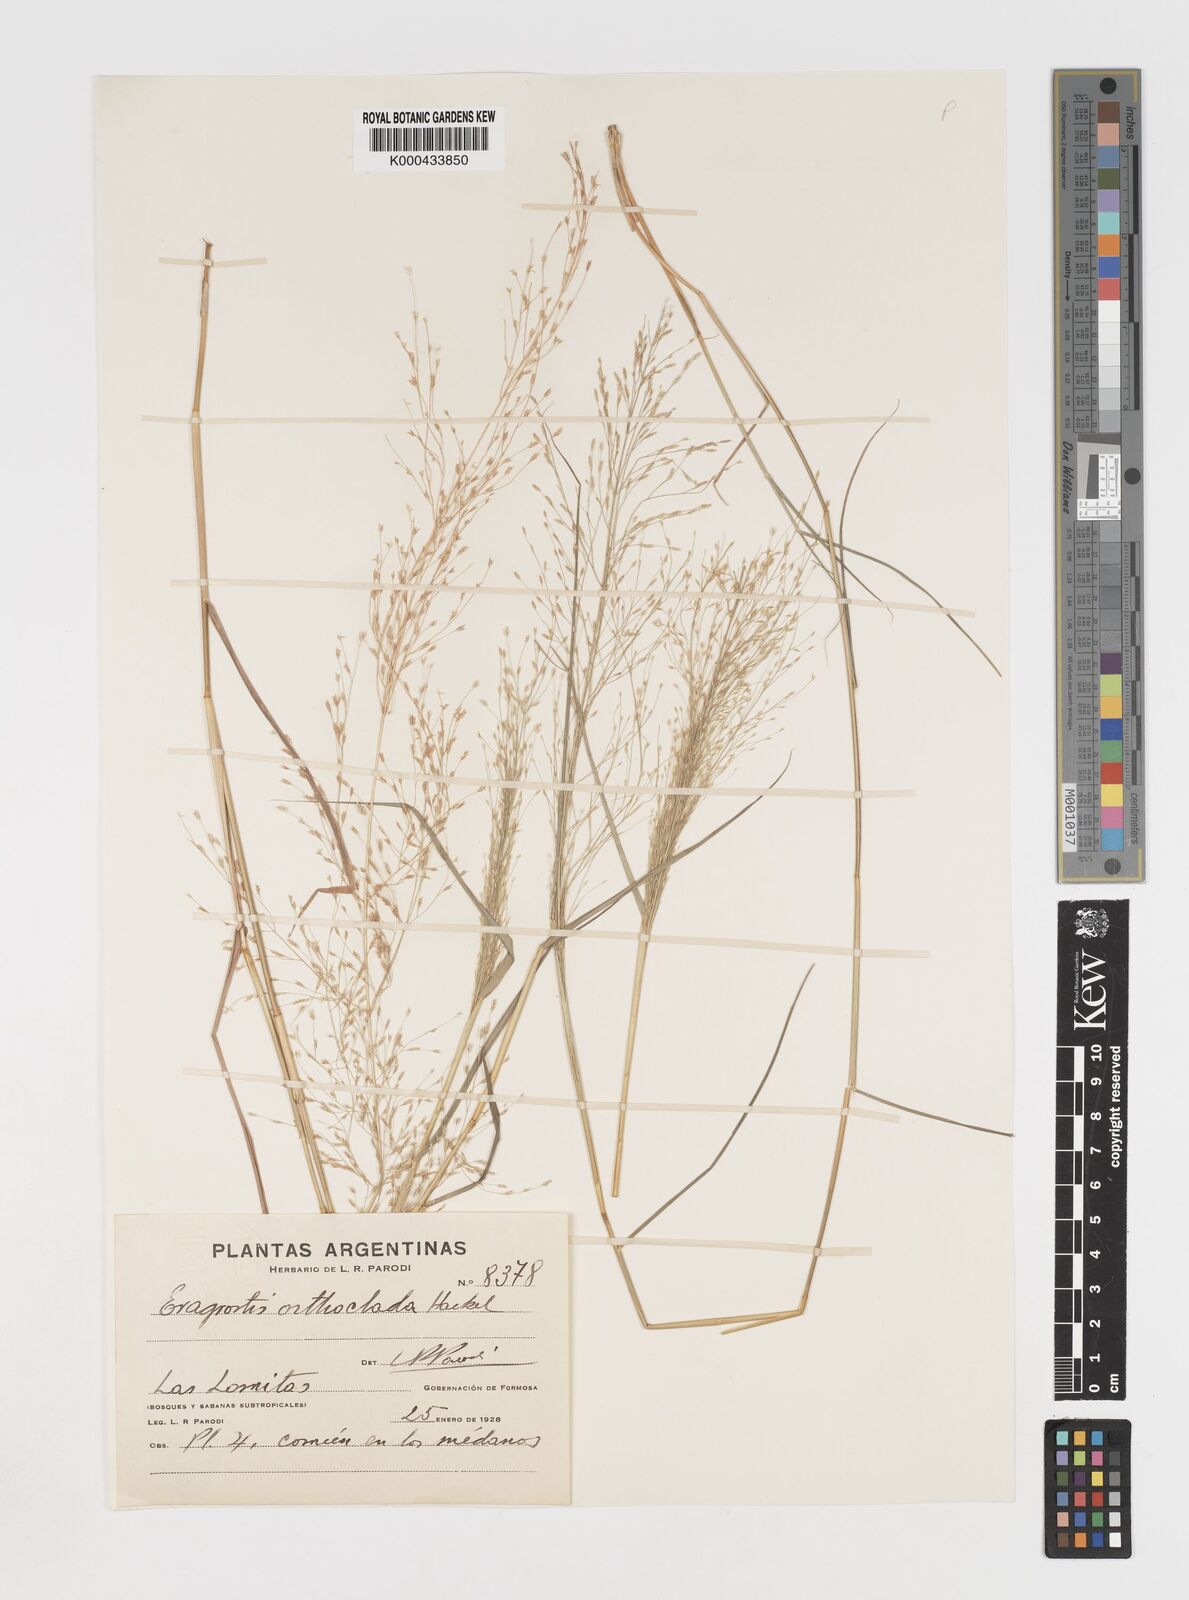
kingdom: Plantae
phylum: Tracheophyta
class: Liliopsida
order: Poales
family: Poaceae
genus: Eragrostis
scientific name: Eragrostis orthoclada
